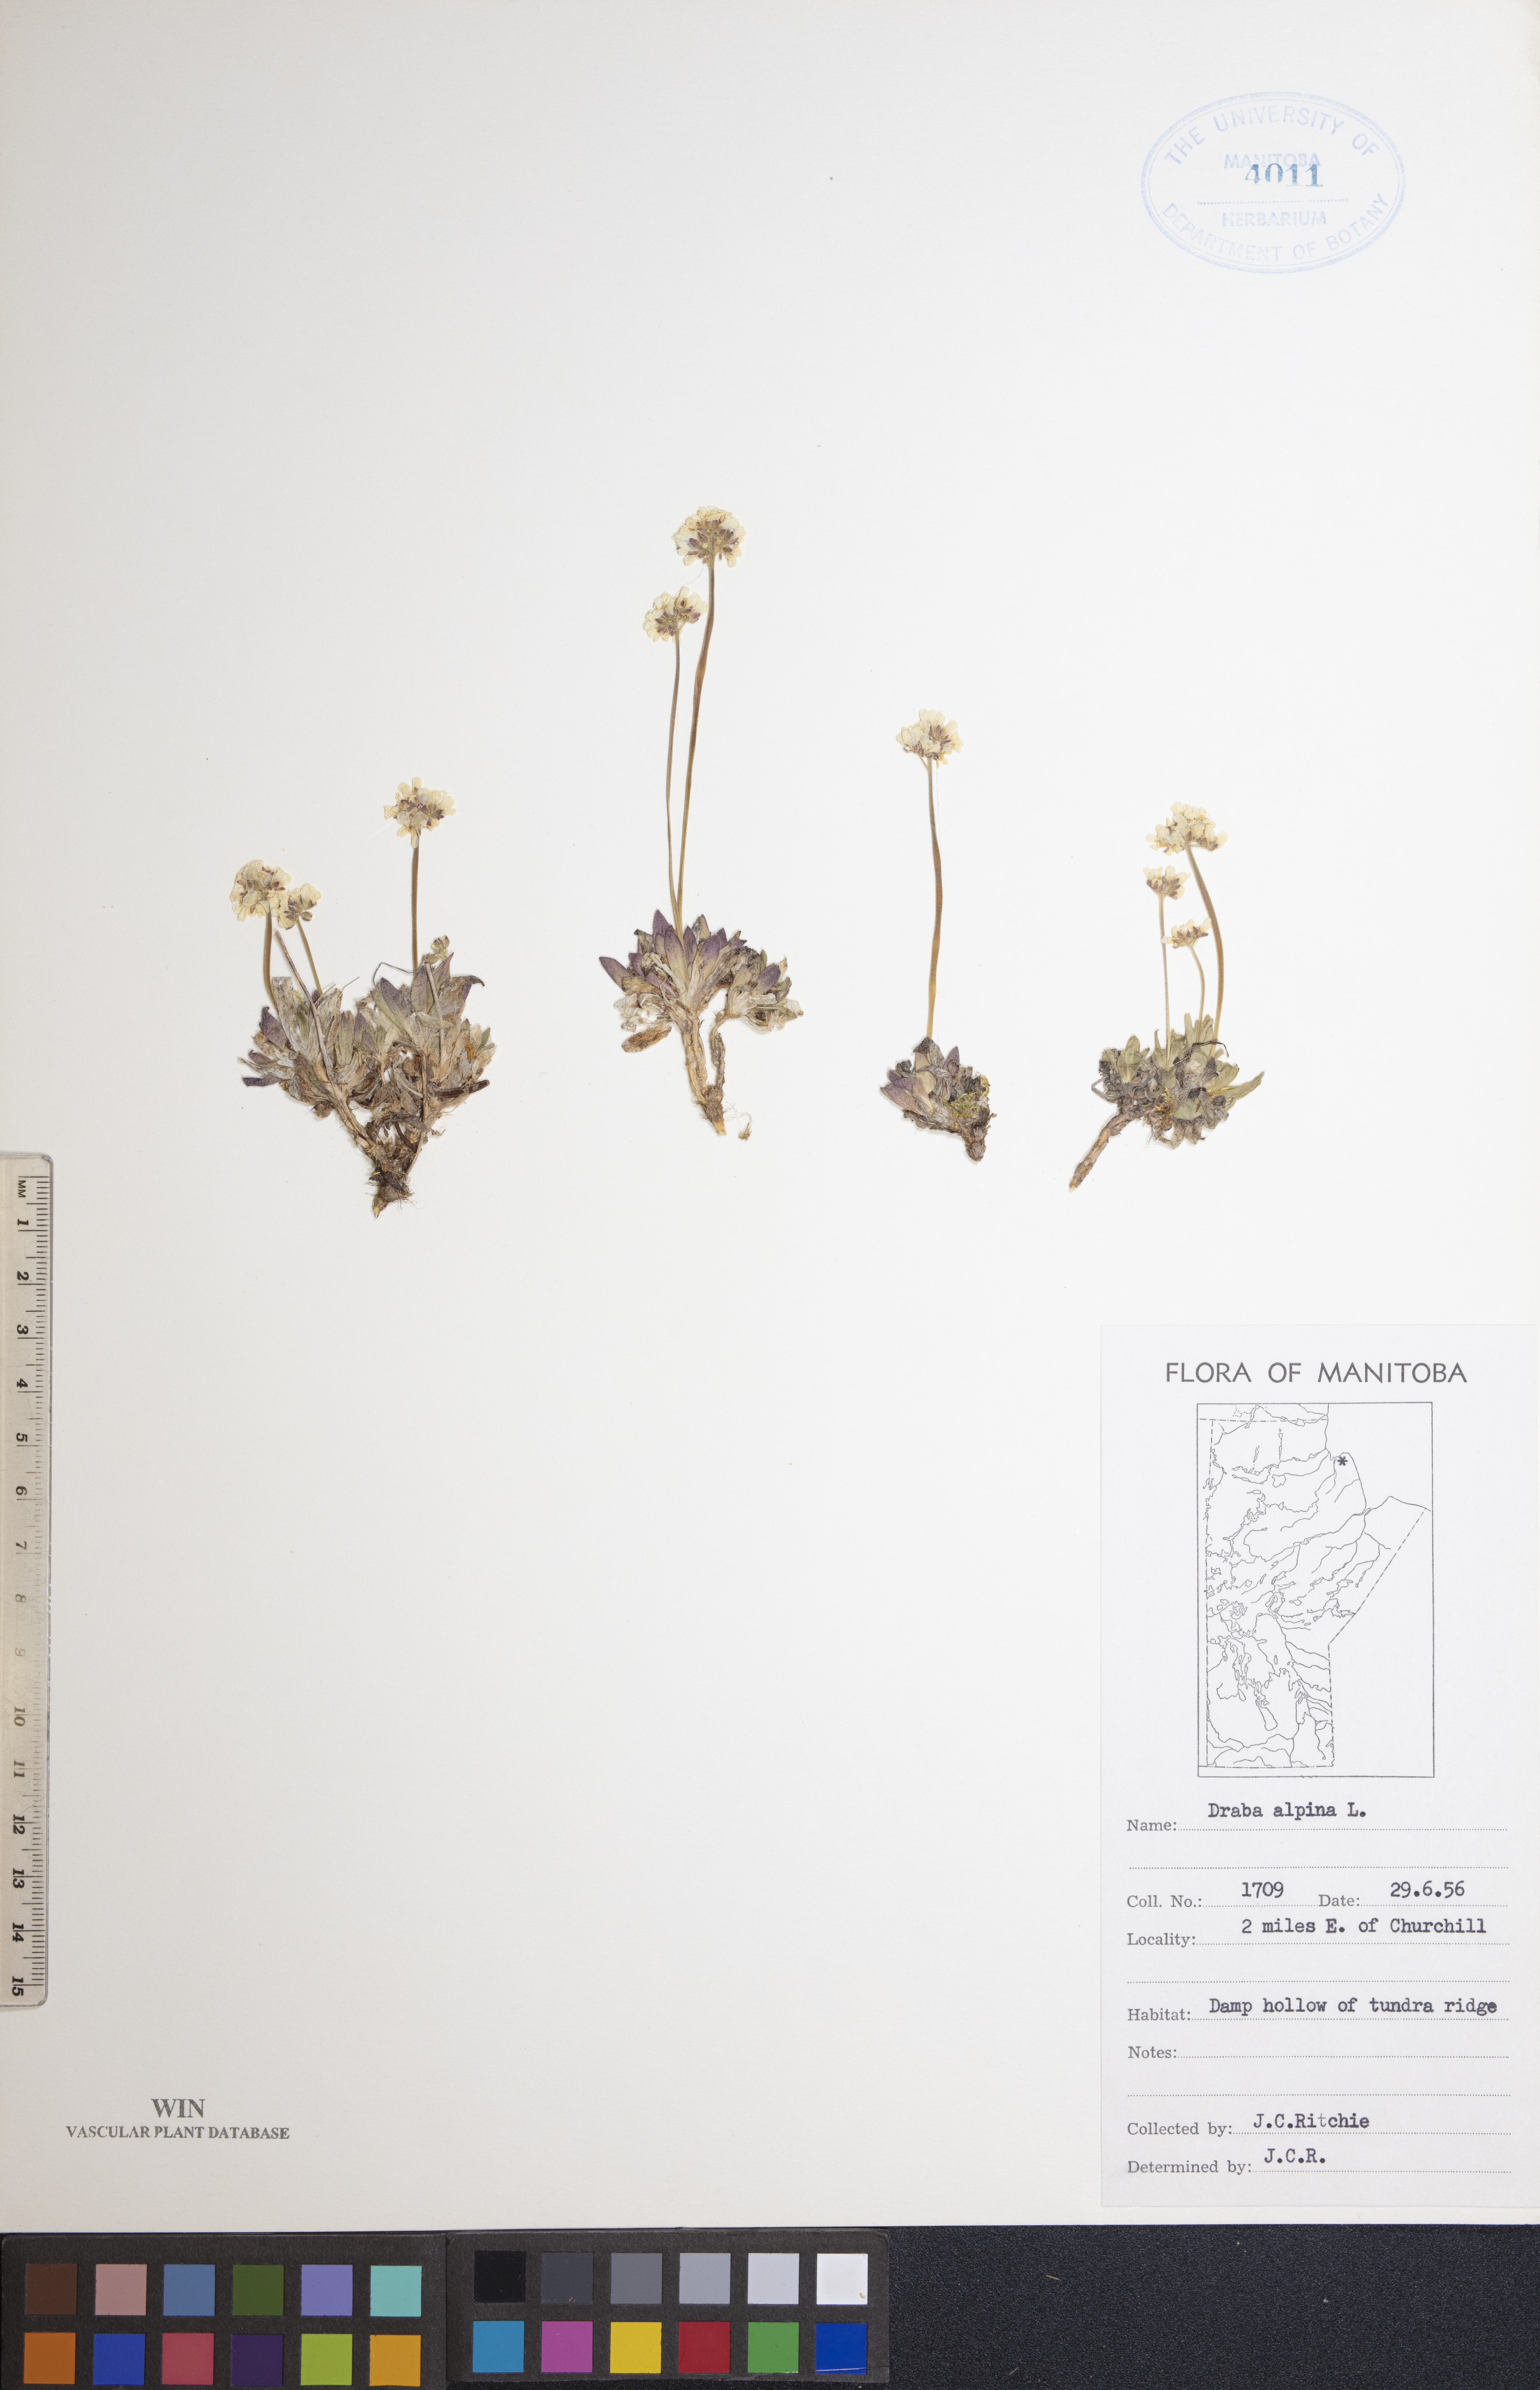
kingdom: Plantae
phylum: Tracheophyta
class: Magnoliopsida
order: Brassicales
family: Brassicaceae
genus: Draba
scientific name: Draba alpina
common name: Alpine draba
